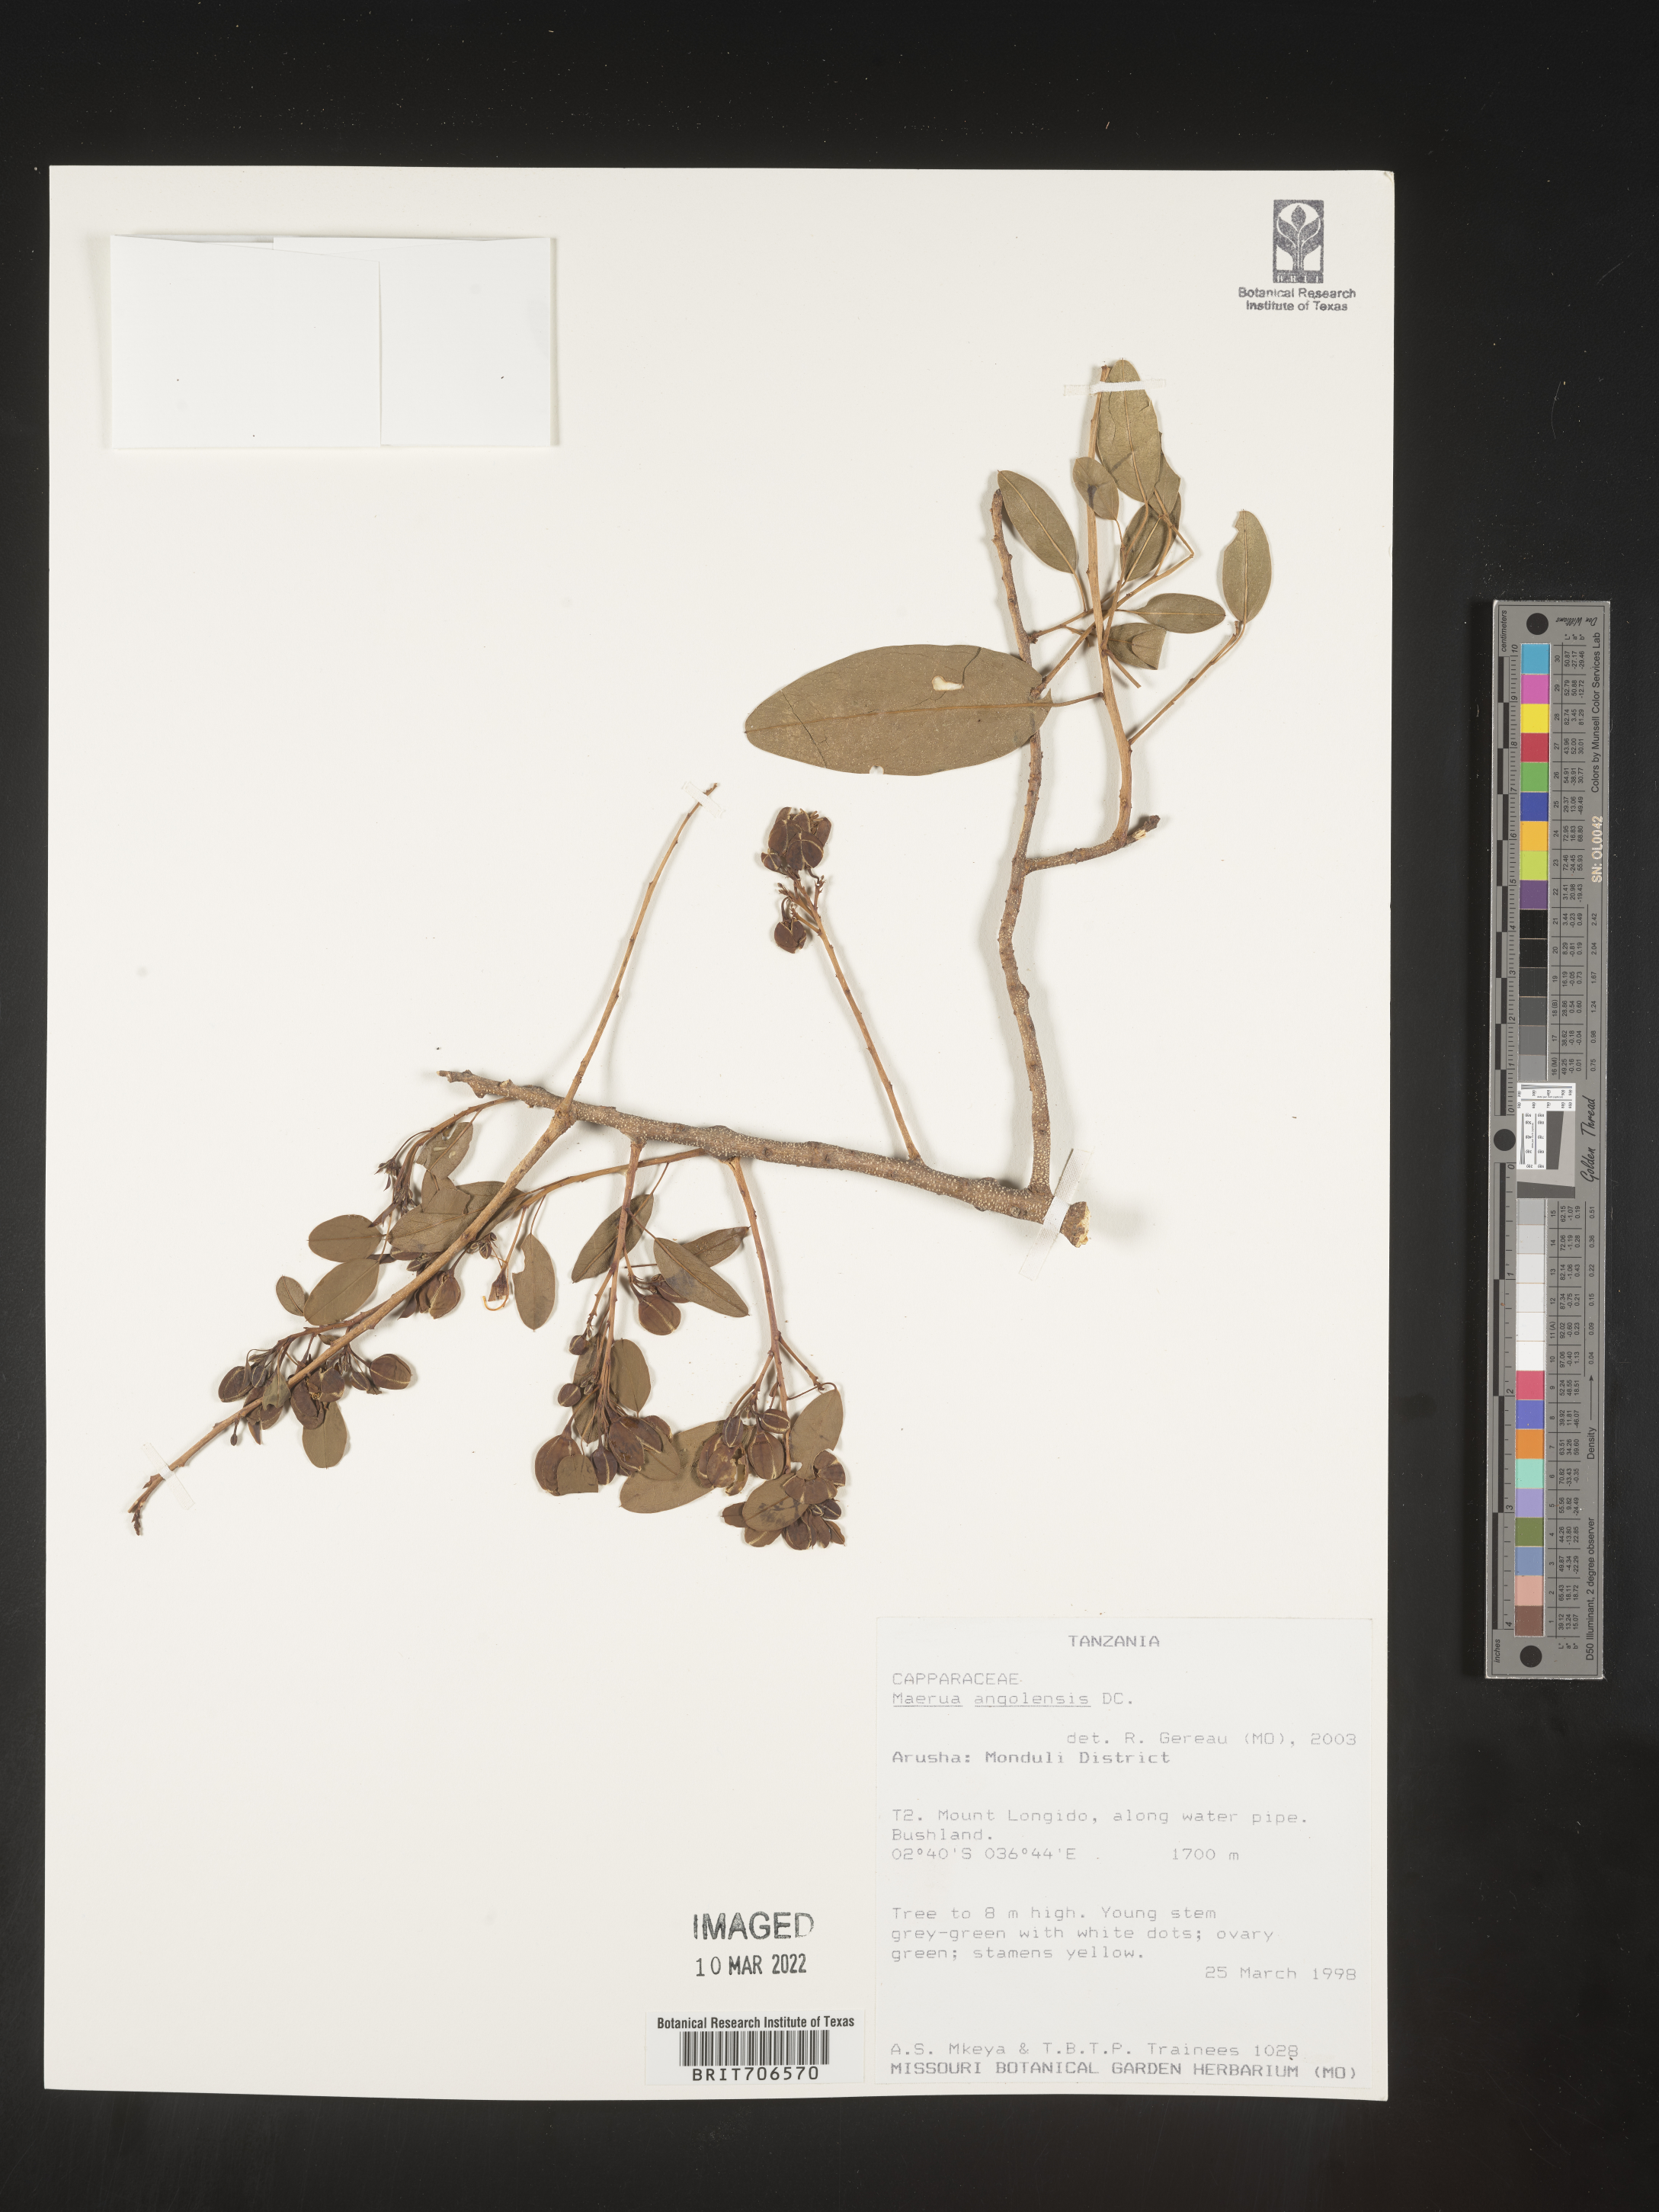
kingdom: Plantae
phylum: Tracheophyta
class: Magnoliopsida
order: Brassicales
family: Capparaceae
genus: Maerua
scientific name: Maerua
